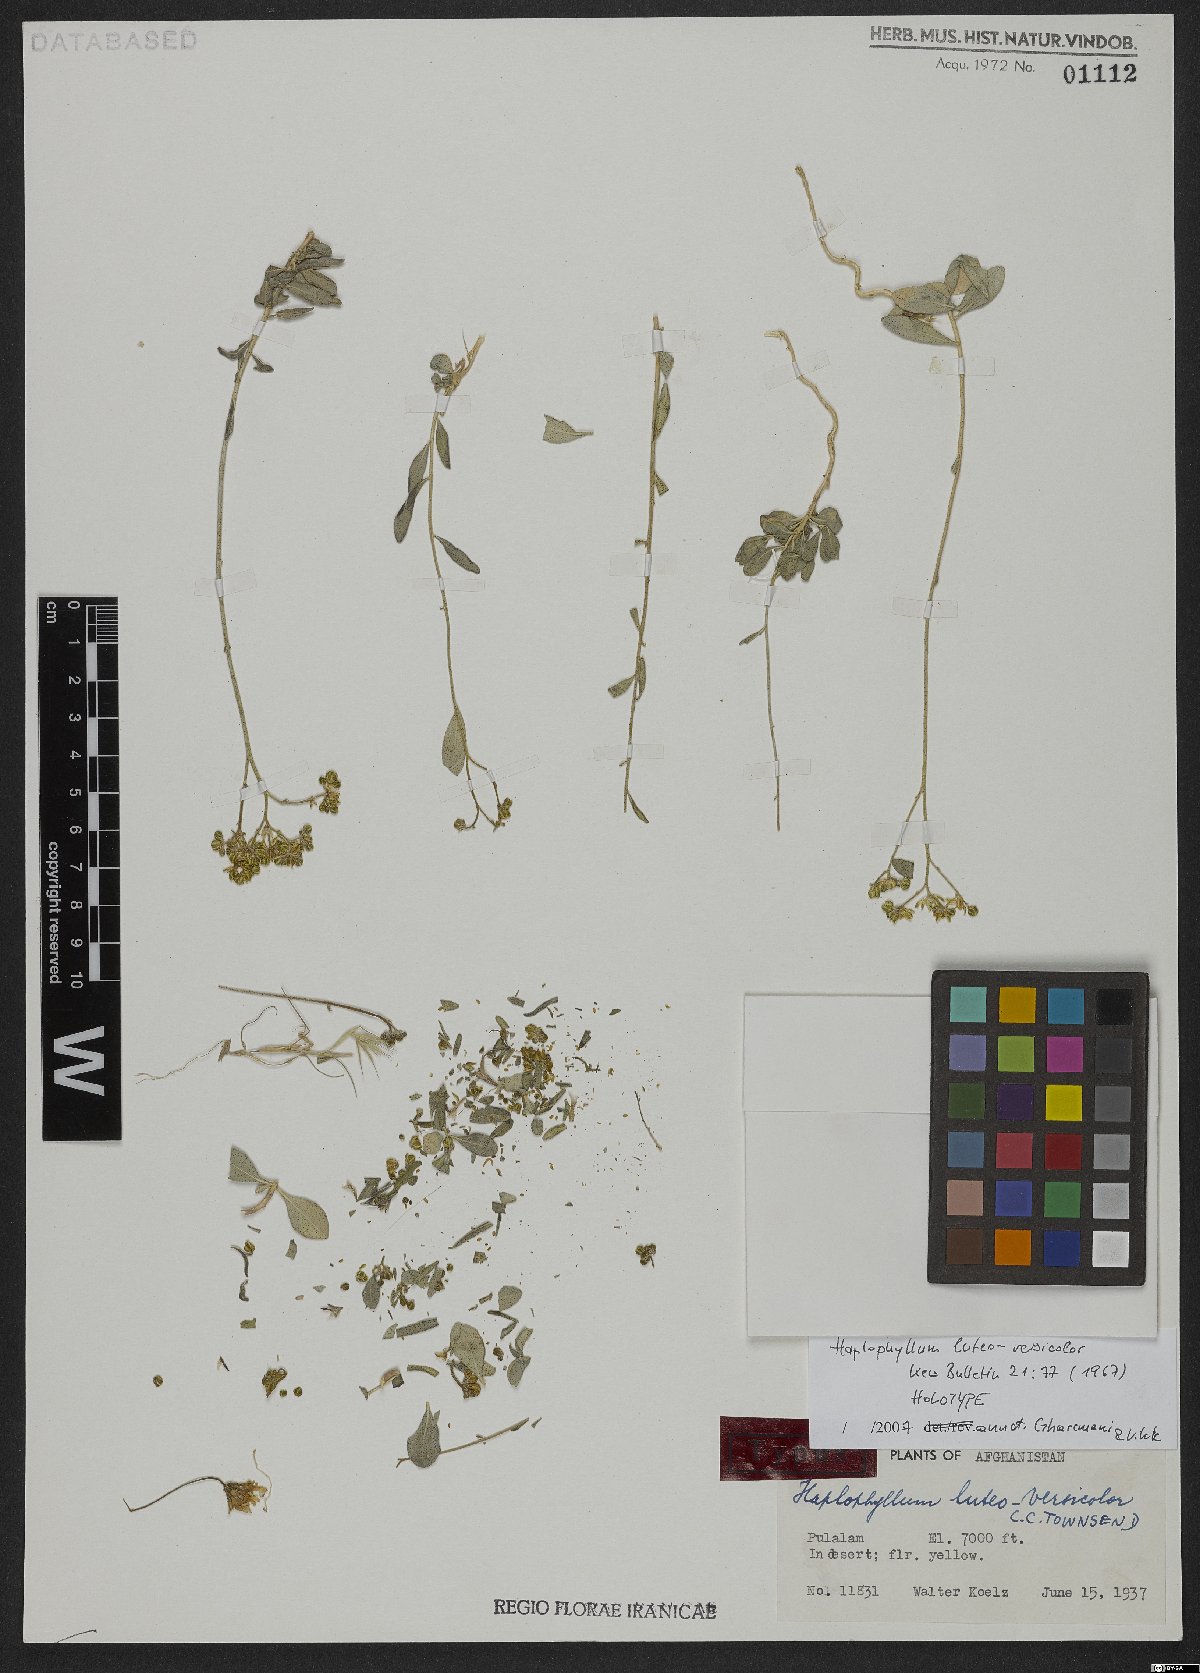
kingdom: Plantae
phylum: Tracheophyta
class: Magnoliopsida
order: Sapindales
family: Rutaceae
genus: Haplophyllum
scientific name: Haplophyllum luteoversicolor
